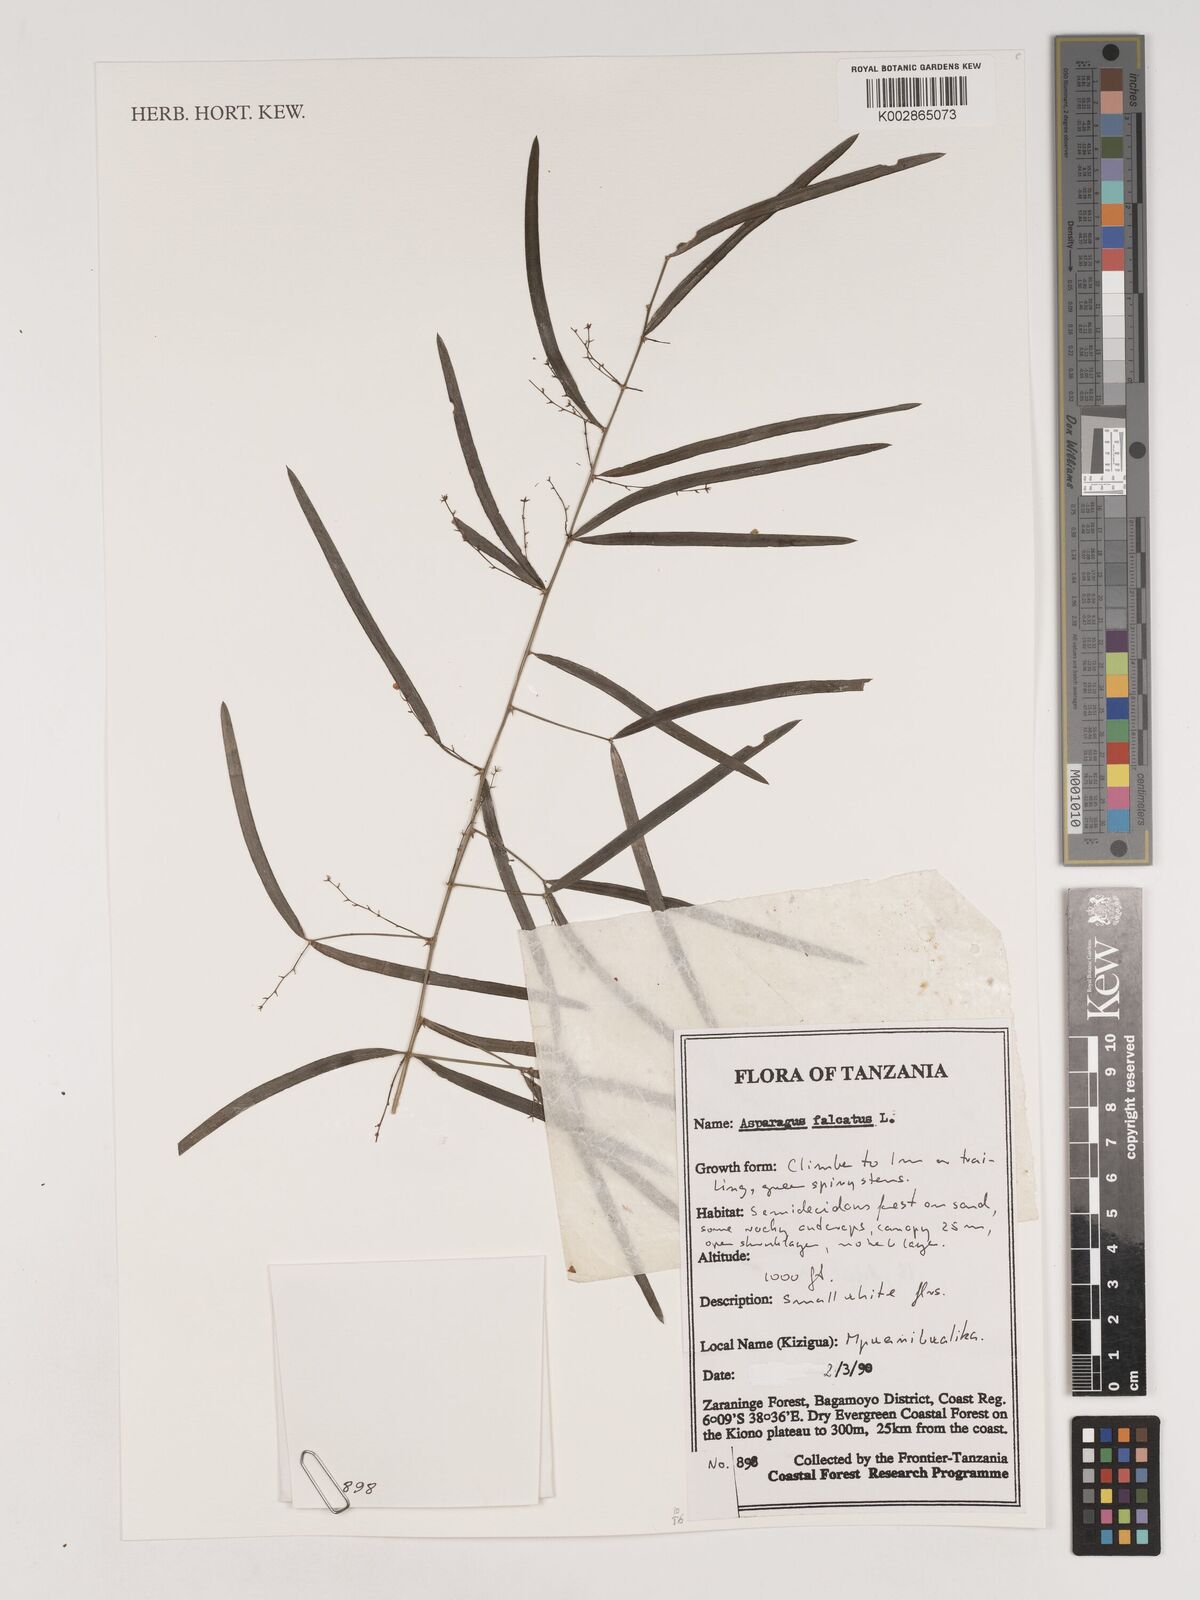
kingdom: Plantae
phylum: Tracheophyta
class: Liliopsida
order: Asparagales
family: Asparagaceae
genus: Asparagus
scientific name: Asparagus falcatus
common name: Asparagus
